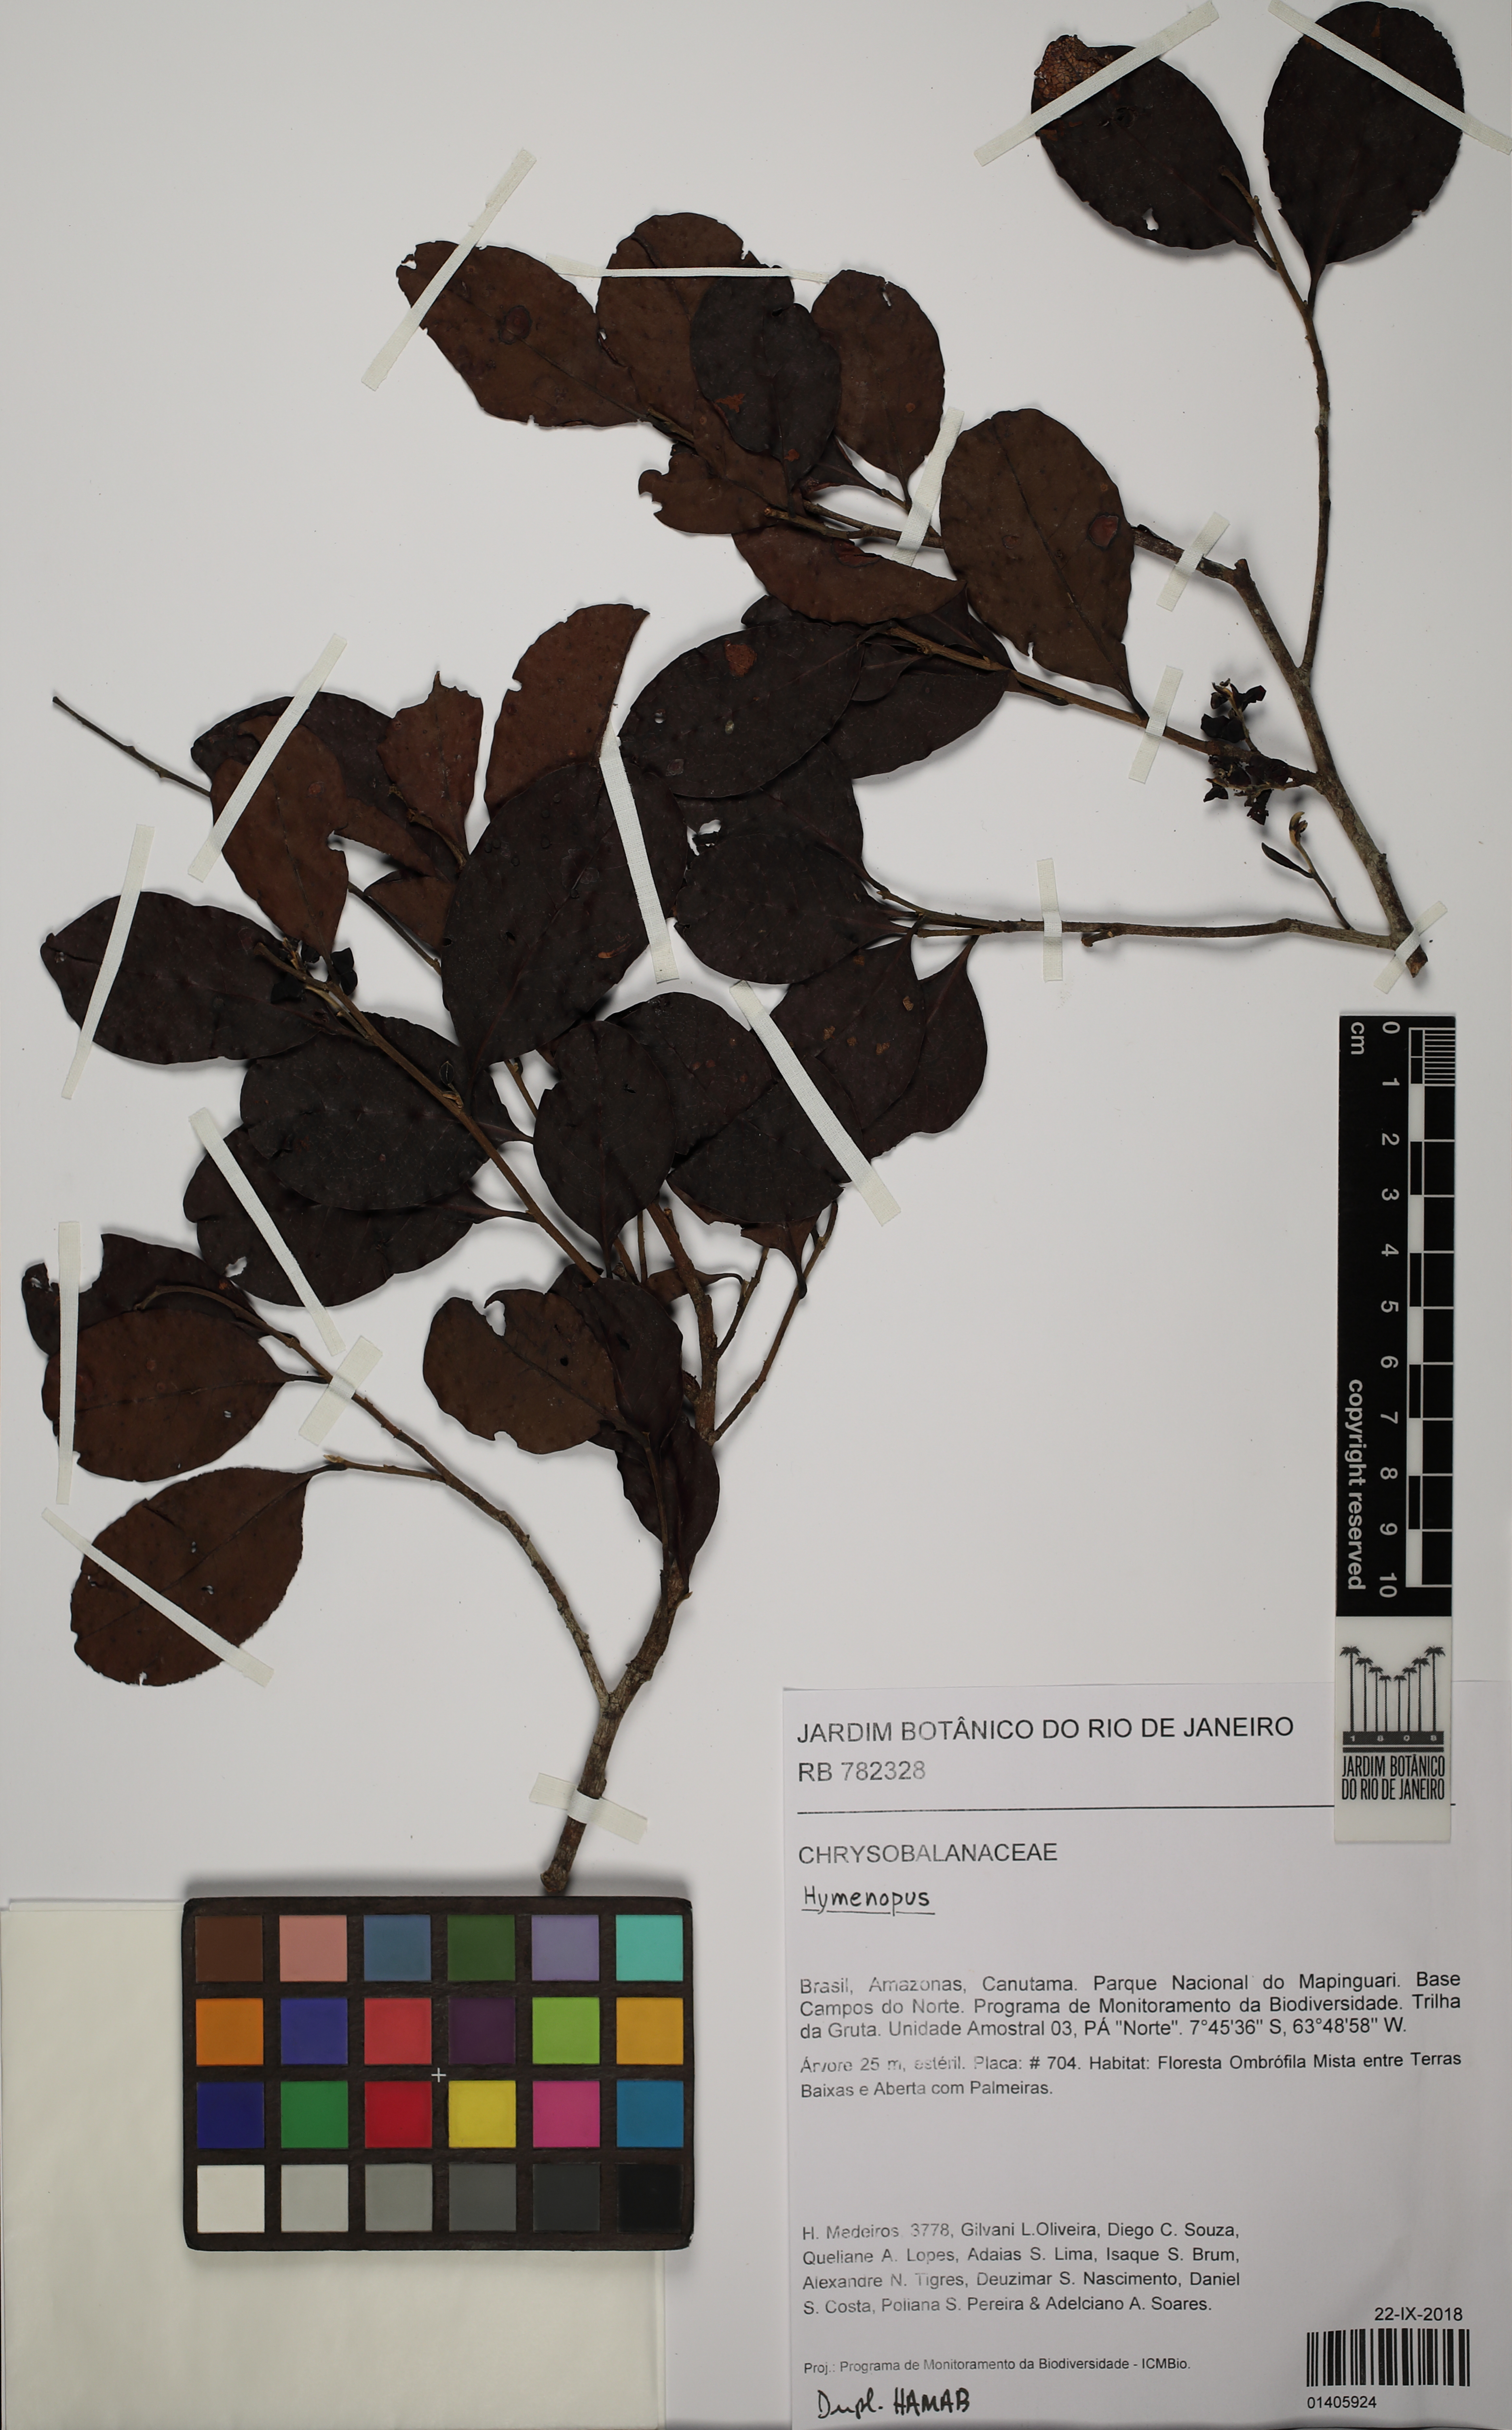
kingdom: Plantae
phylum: Tracheophyta
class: Magnoliopsida
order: Malpighiales
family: Chrysobalanaceae
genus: Hymenopus
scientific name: Hymenopus
